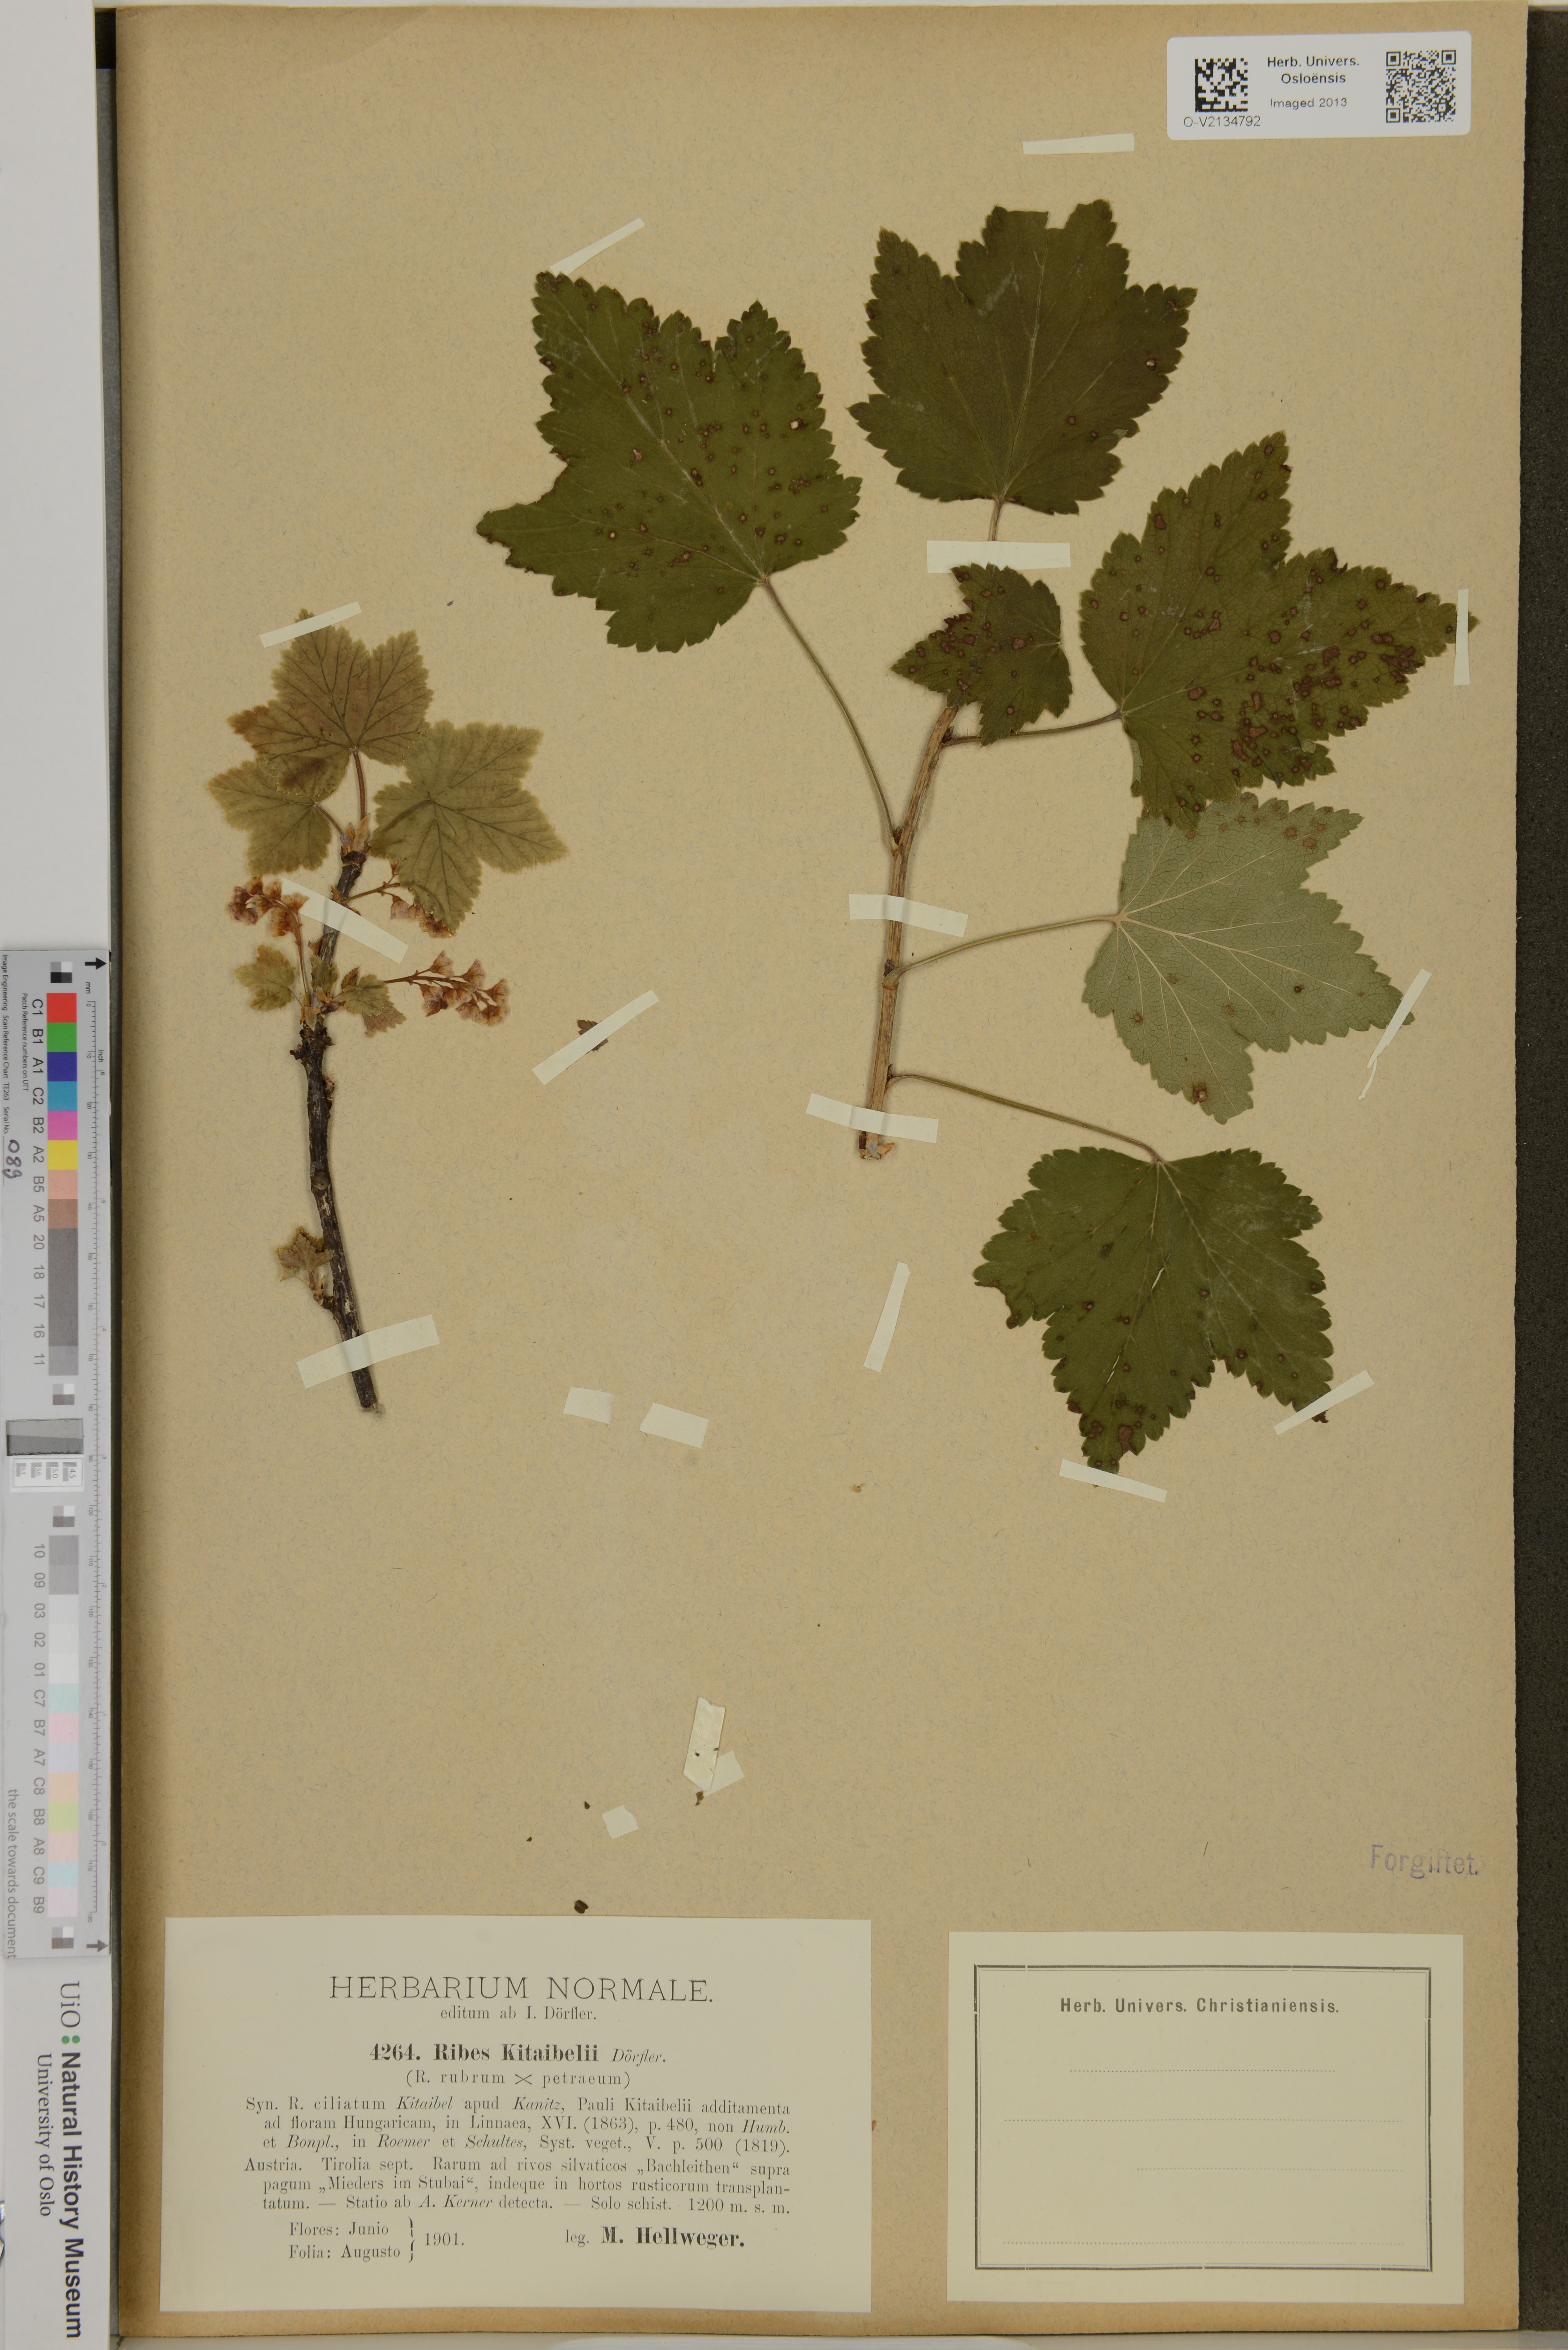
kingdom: Plantae
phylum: Tracheophyta
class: Magnoliopsida
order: Saxifragales
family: Grossulariaceae
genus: Ribes
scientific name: Ribes pallidum
